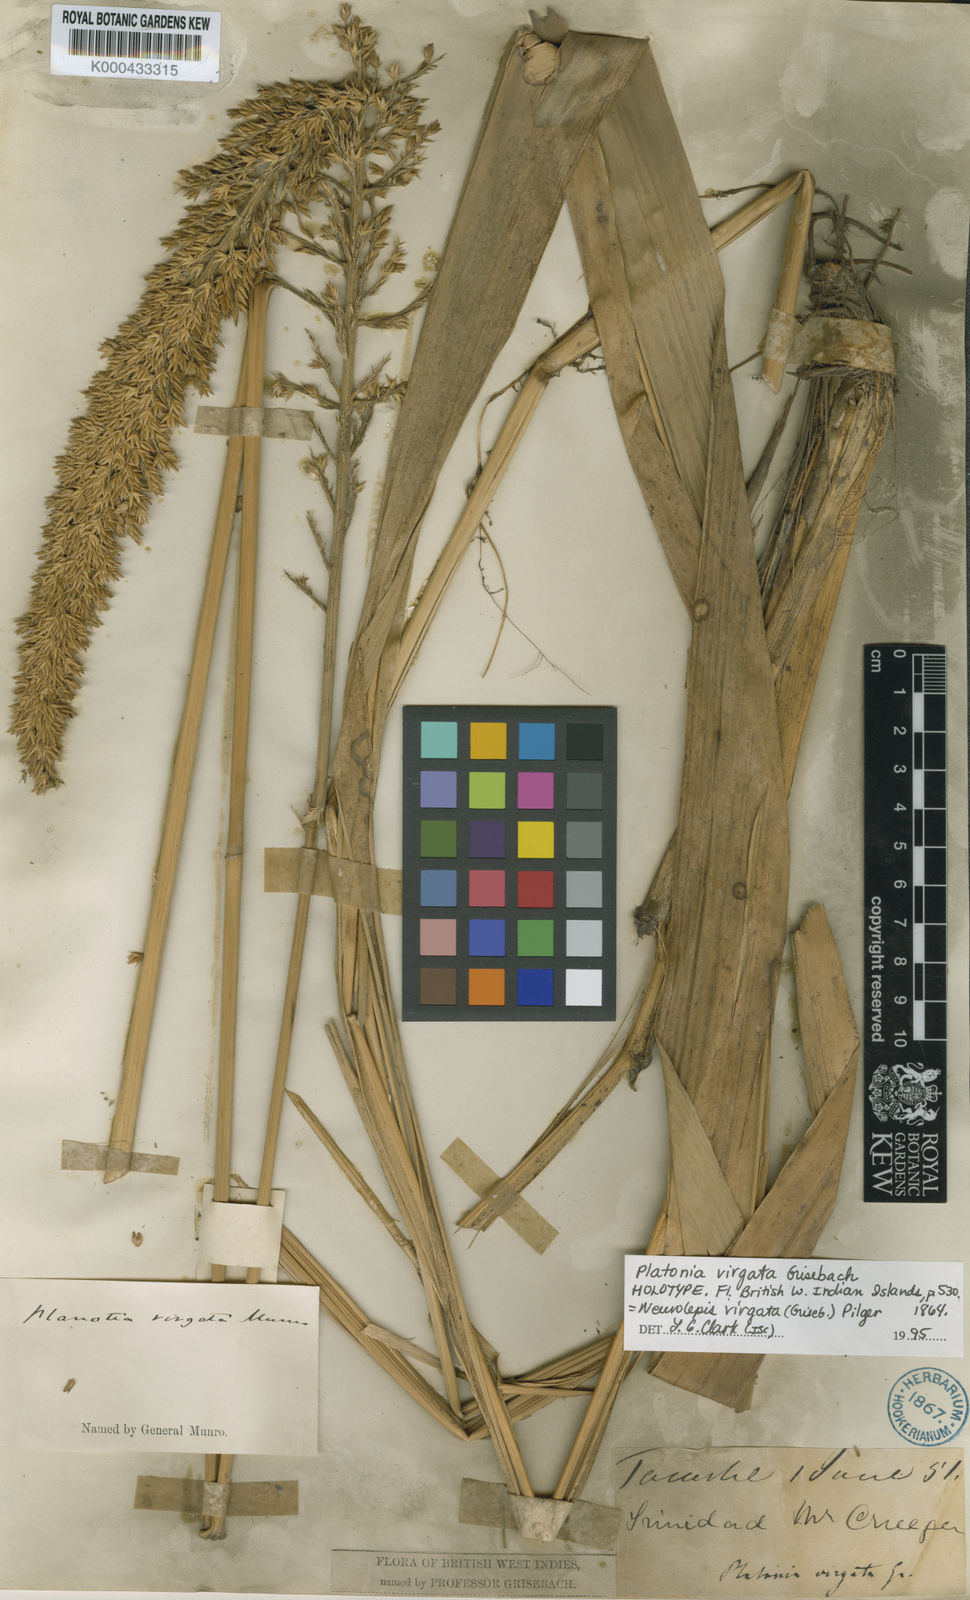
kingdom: Plantae
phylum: Tracheophyta
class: Liliopsida
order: Poales
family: Poaceae
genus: Chusquea
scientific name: Chusquea cylindrica
